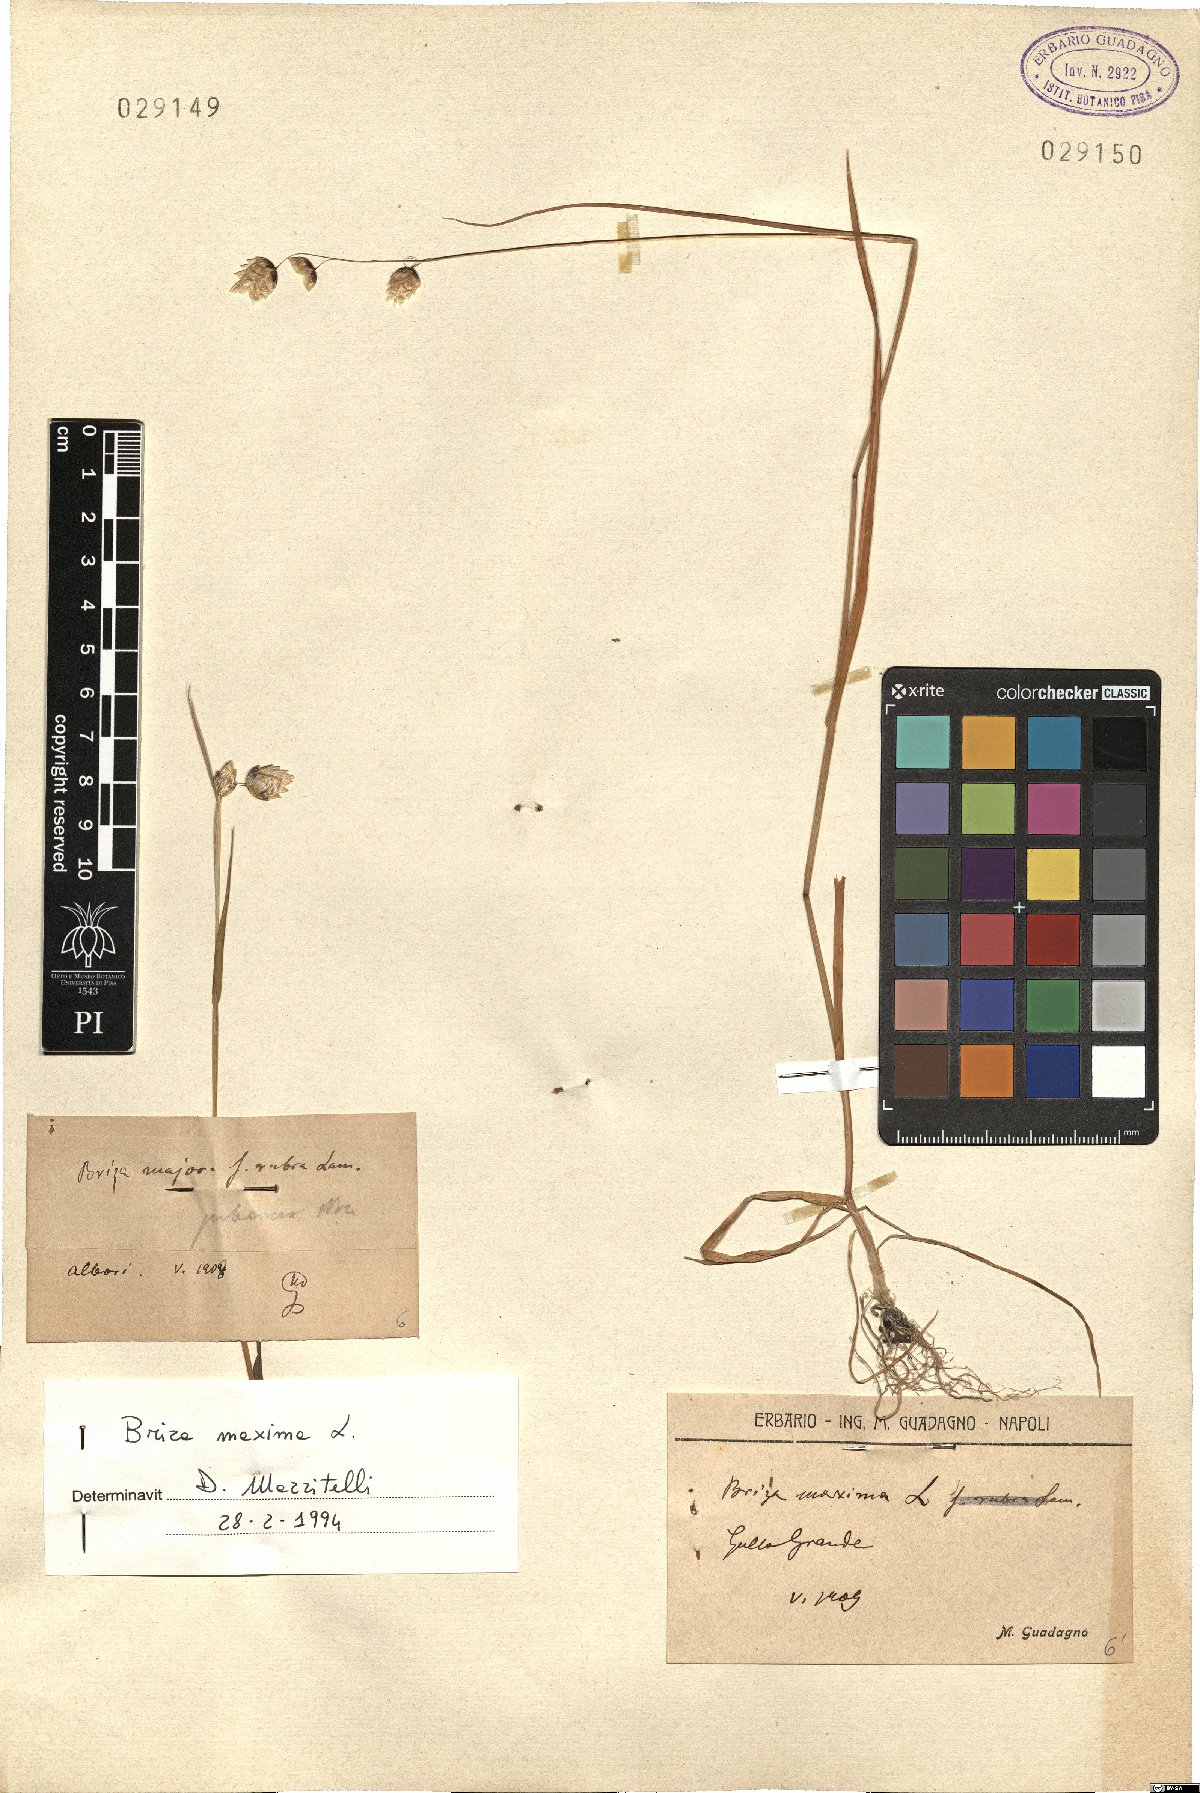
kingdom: Plantae
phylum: Tracheophyta
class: Liliopsida
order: Poales
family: Poaceae
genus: Briza
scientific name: Briza maxima
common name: Big quakinggrass
